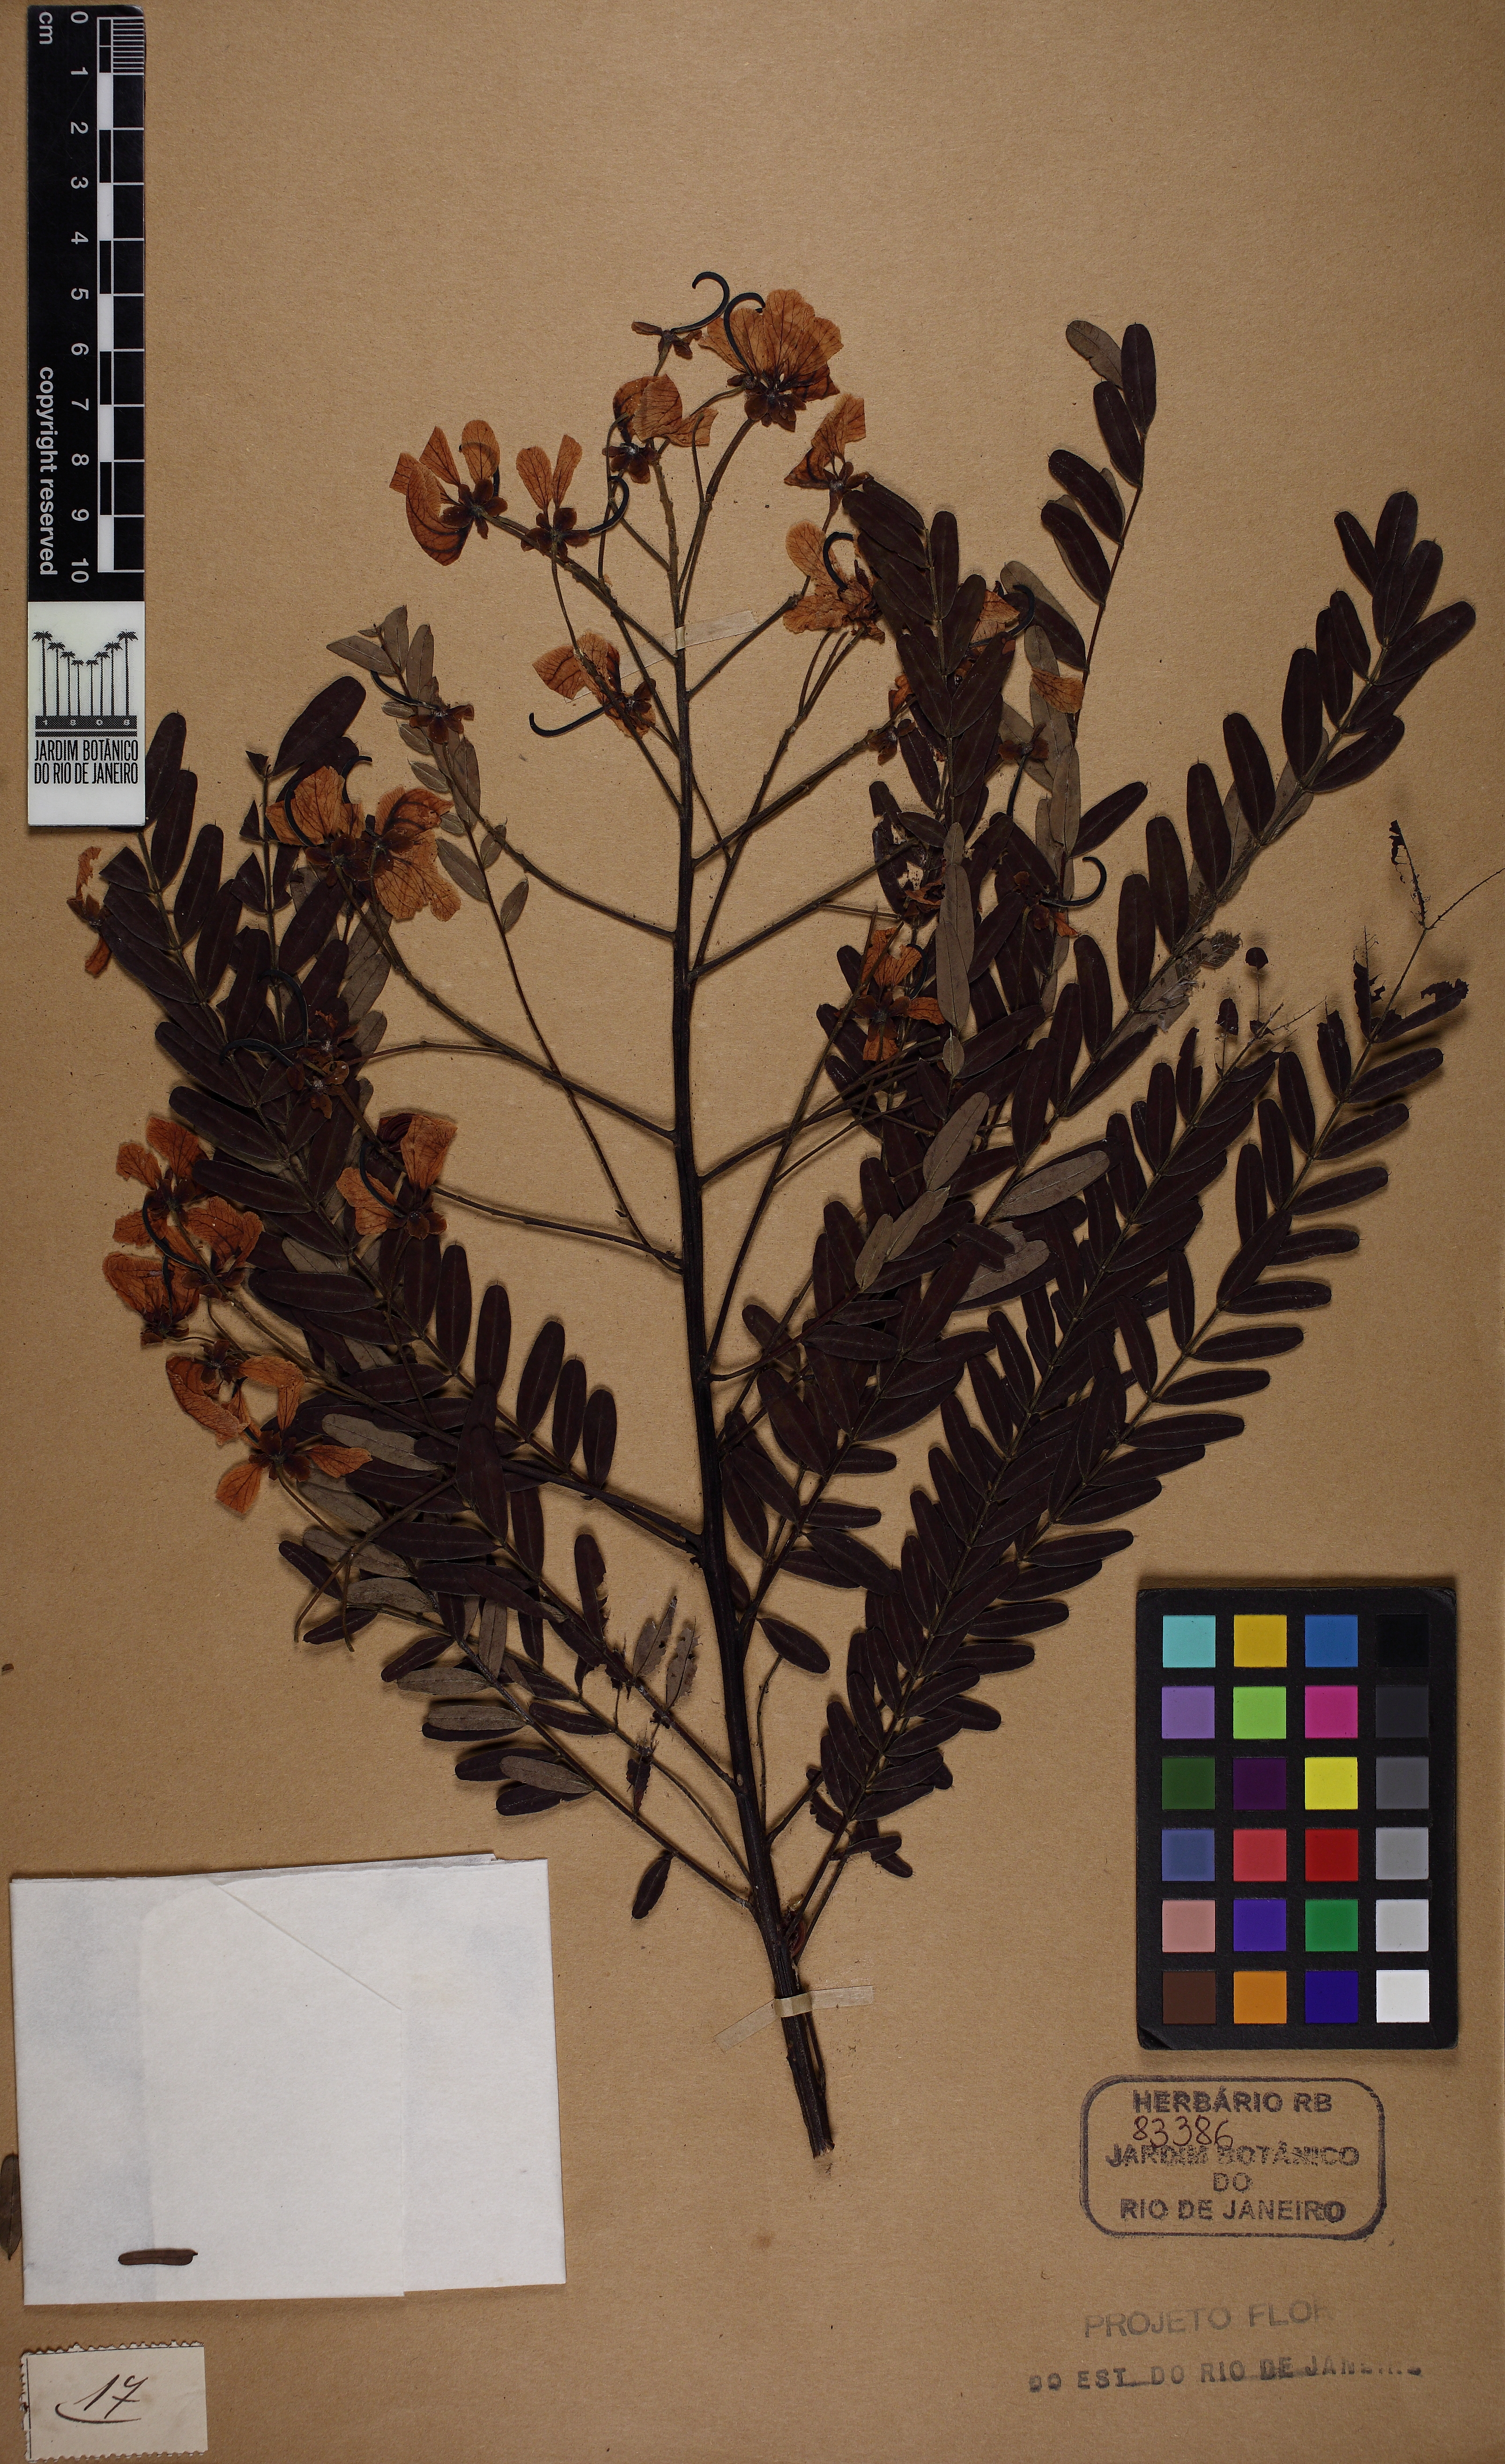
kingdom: Plantae
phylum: Tracheophyta
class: Magnoliopsida
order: Fabales
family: Fabaceae
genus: Senna
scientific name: Senna multijuga
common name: False sicklepod
